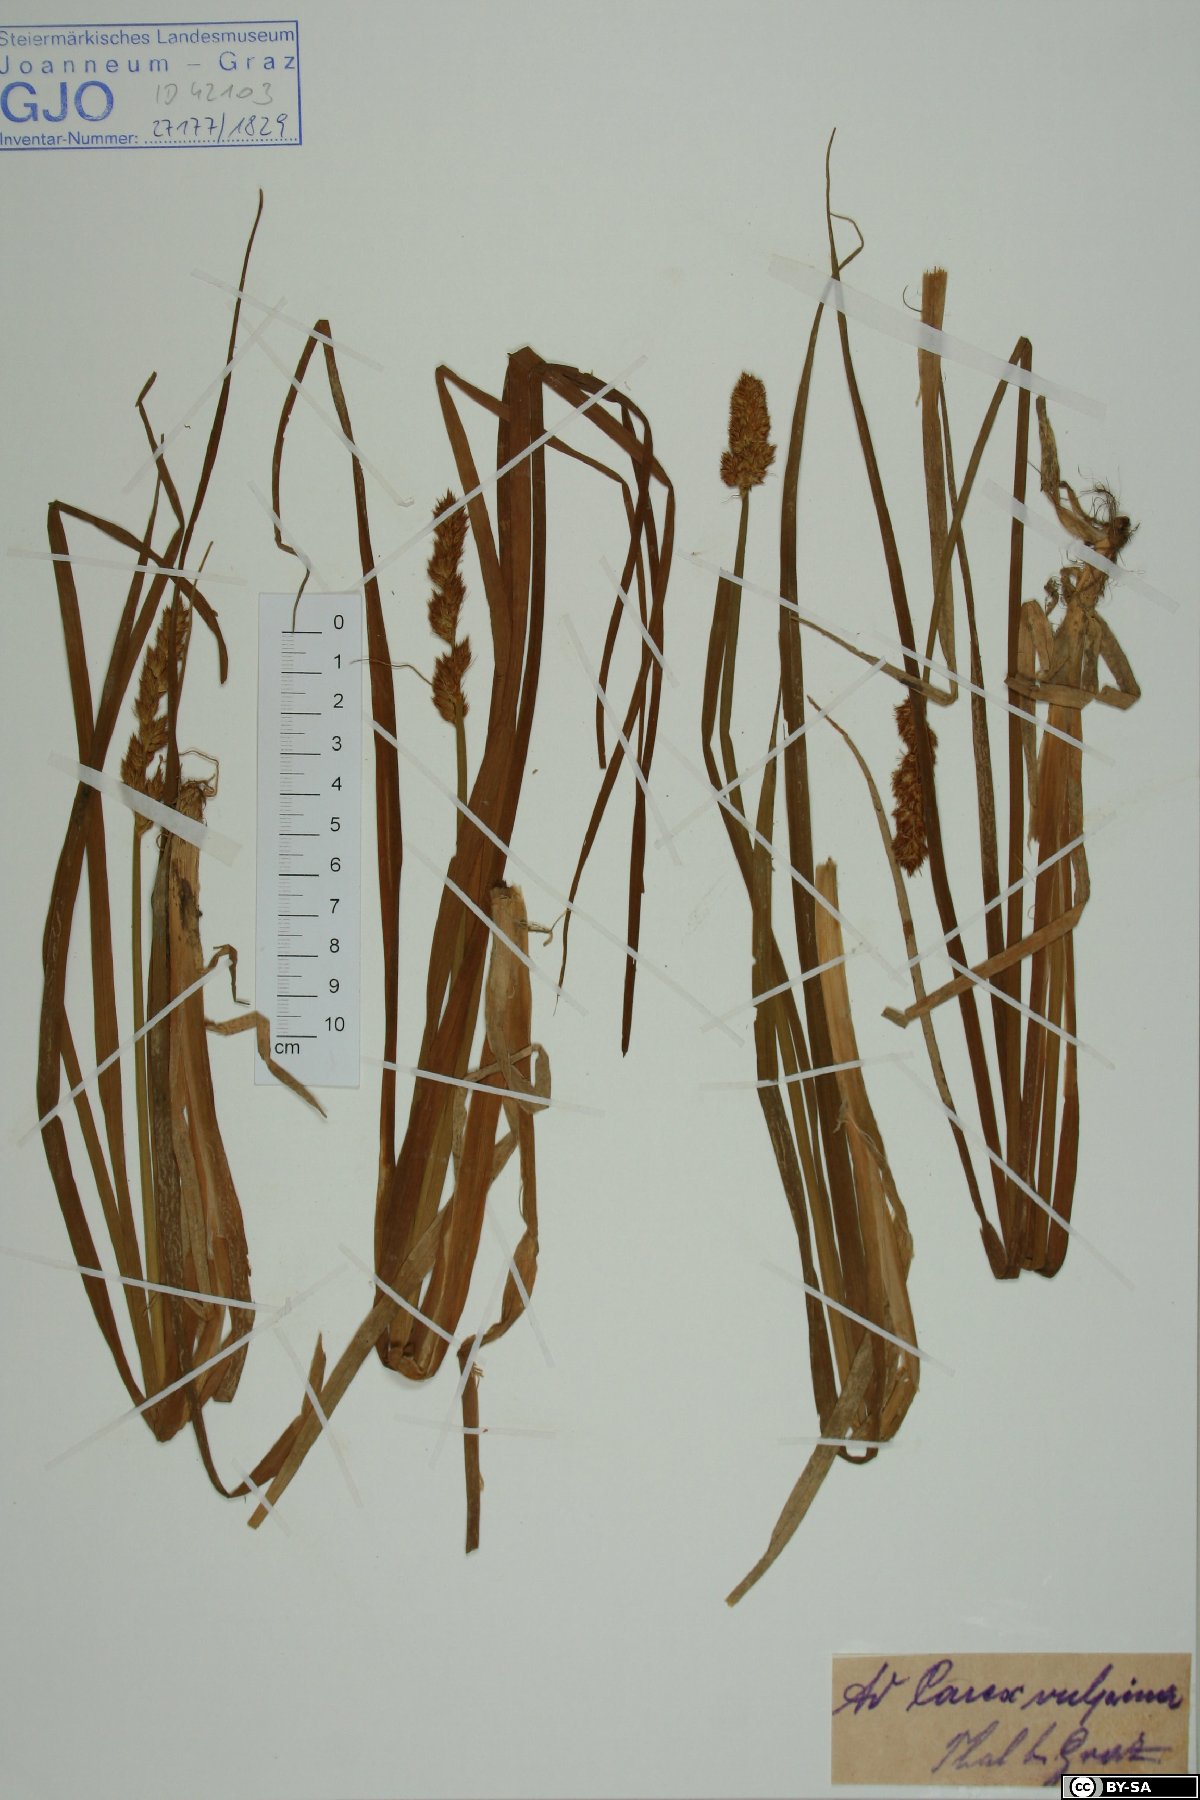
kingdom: Plantae
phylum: Tracheophyta
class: Liliopsida
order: Poales
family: Cyperaceae
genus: Carex
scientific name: Carex vulpina
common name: True fox-sedge
